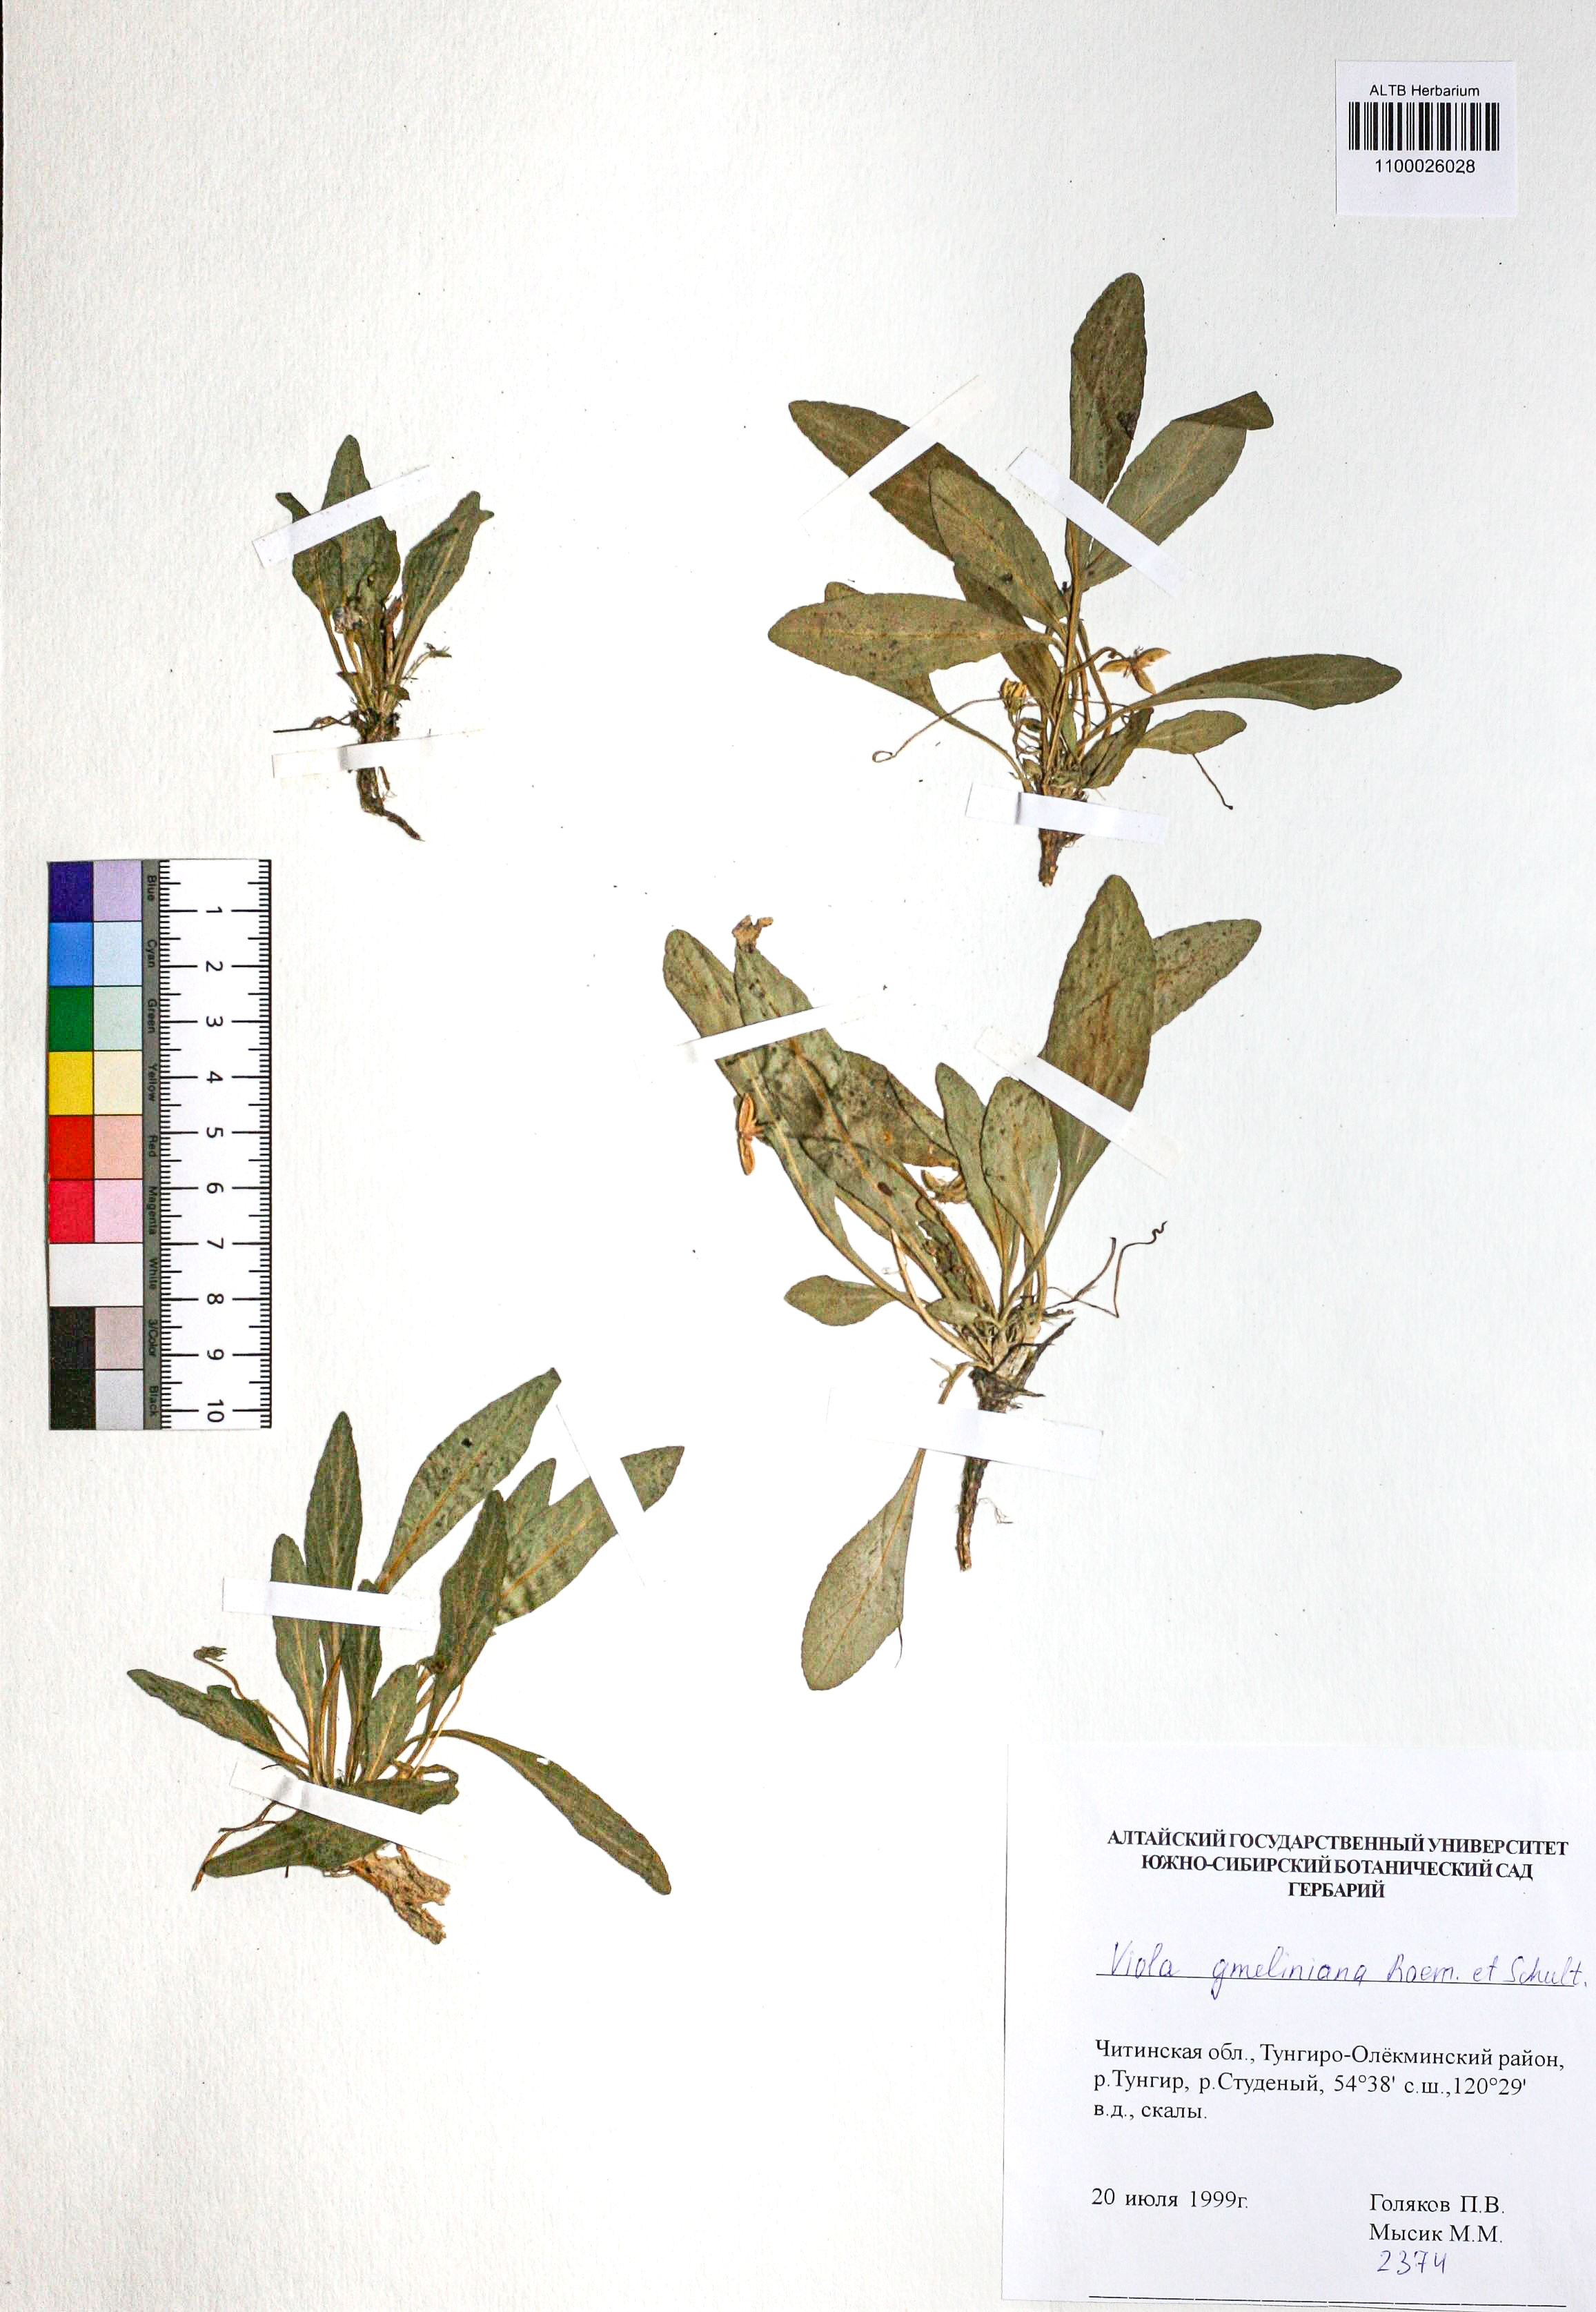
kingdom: Plantae
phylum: Tracheophyta
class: Magnoliopsida
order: Malpighiales
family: Violaceae
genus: Viola
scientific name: Viola gmeliniana
